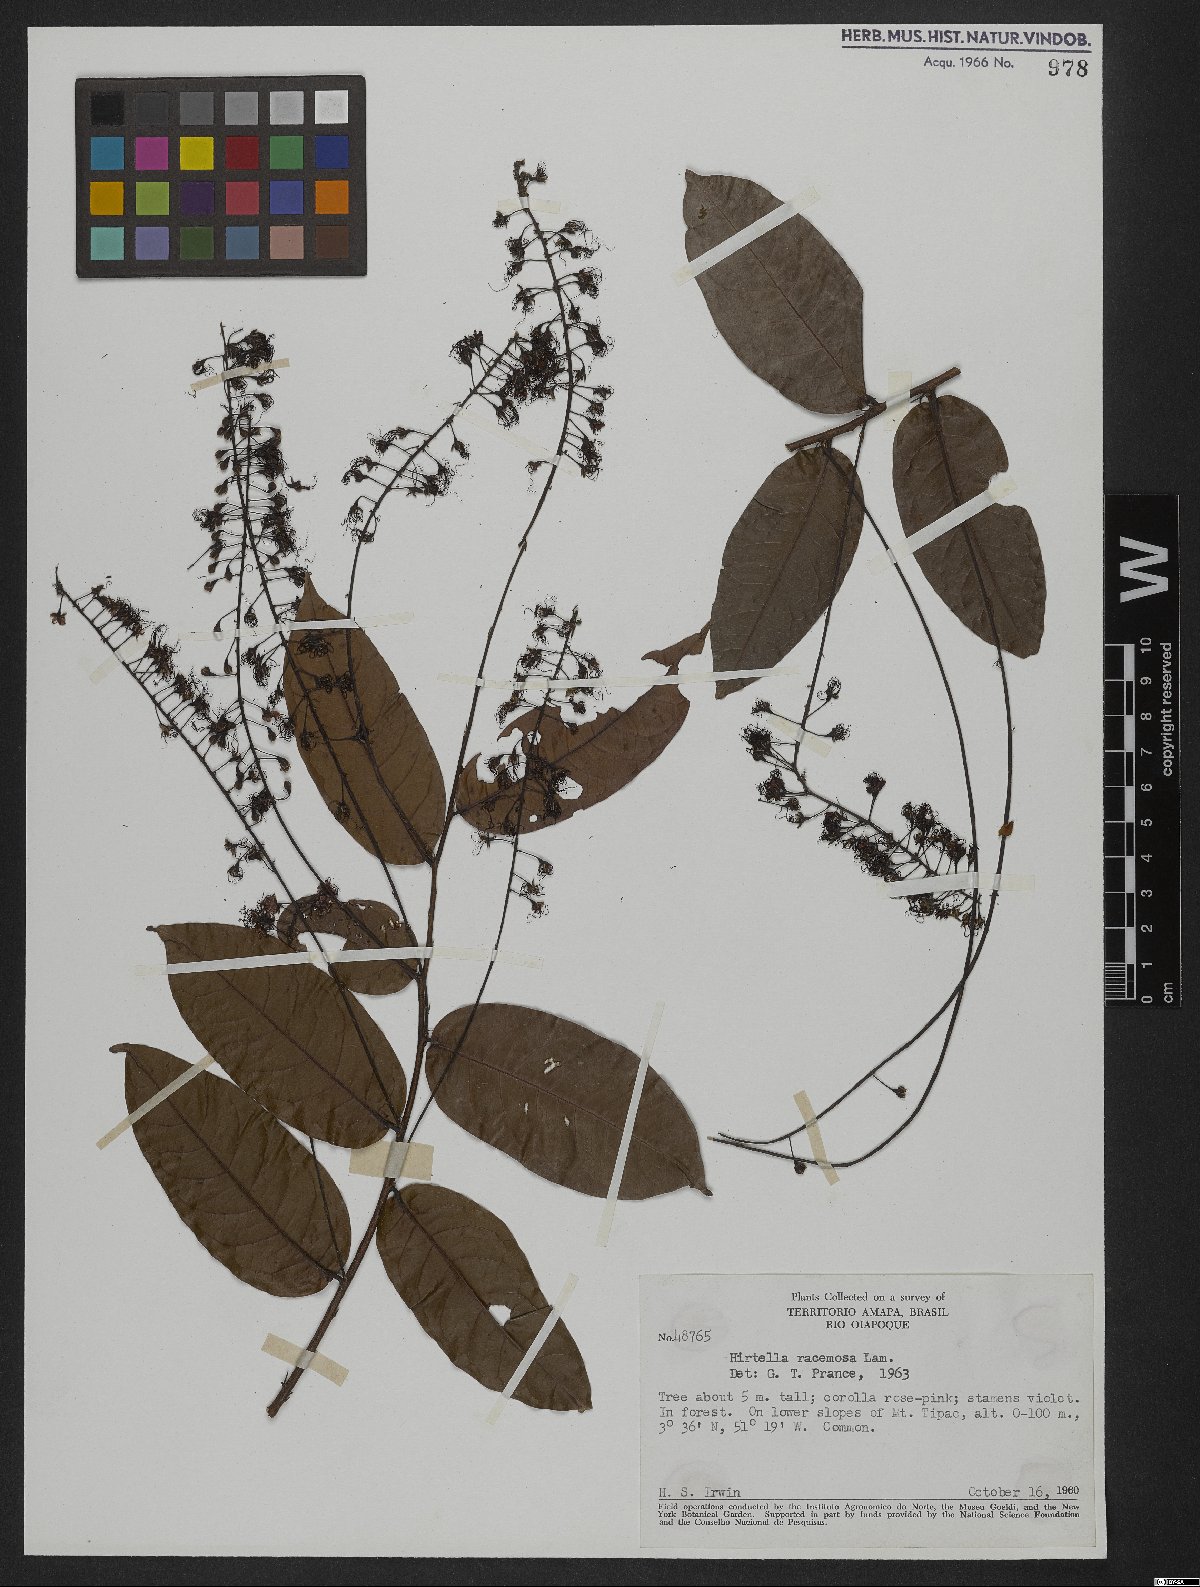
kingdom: Plantae
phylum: Tracheophyta
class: Magnoliopsida
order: Malpighiales
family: Chrysobalanaceae
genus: Hirtella
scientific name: Hirtella racemosa
